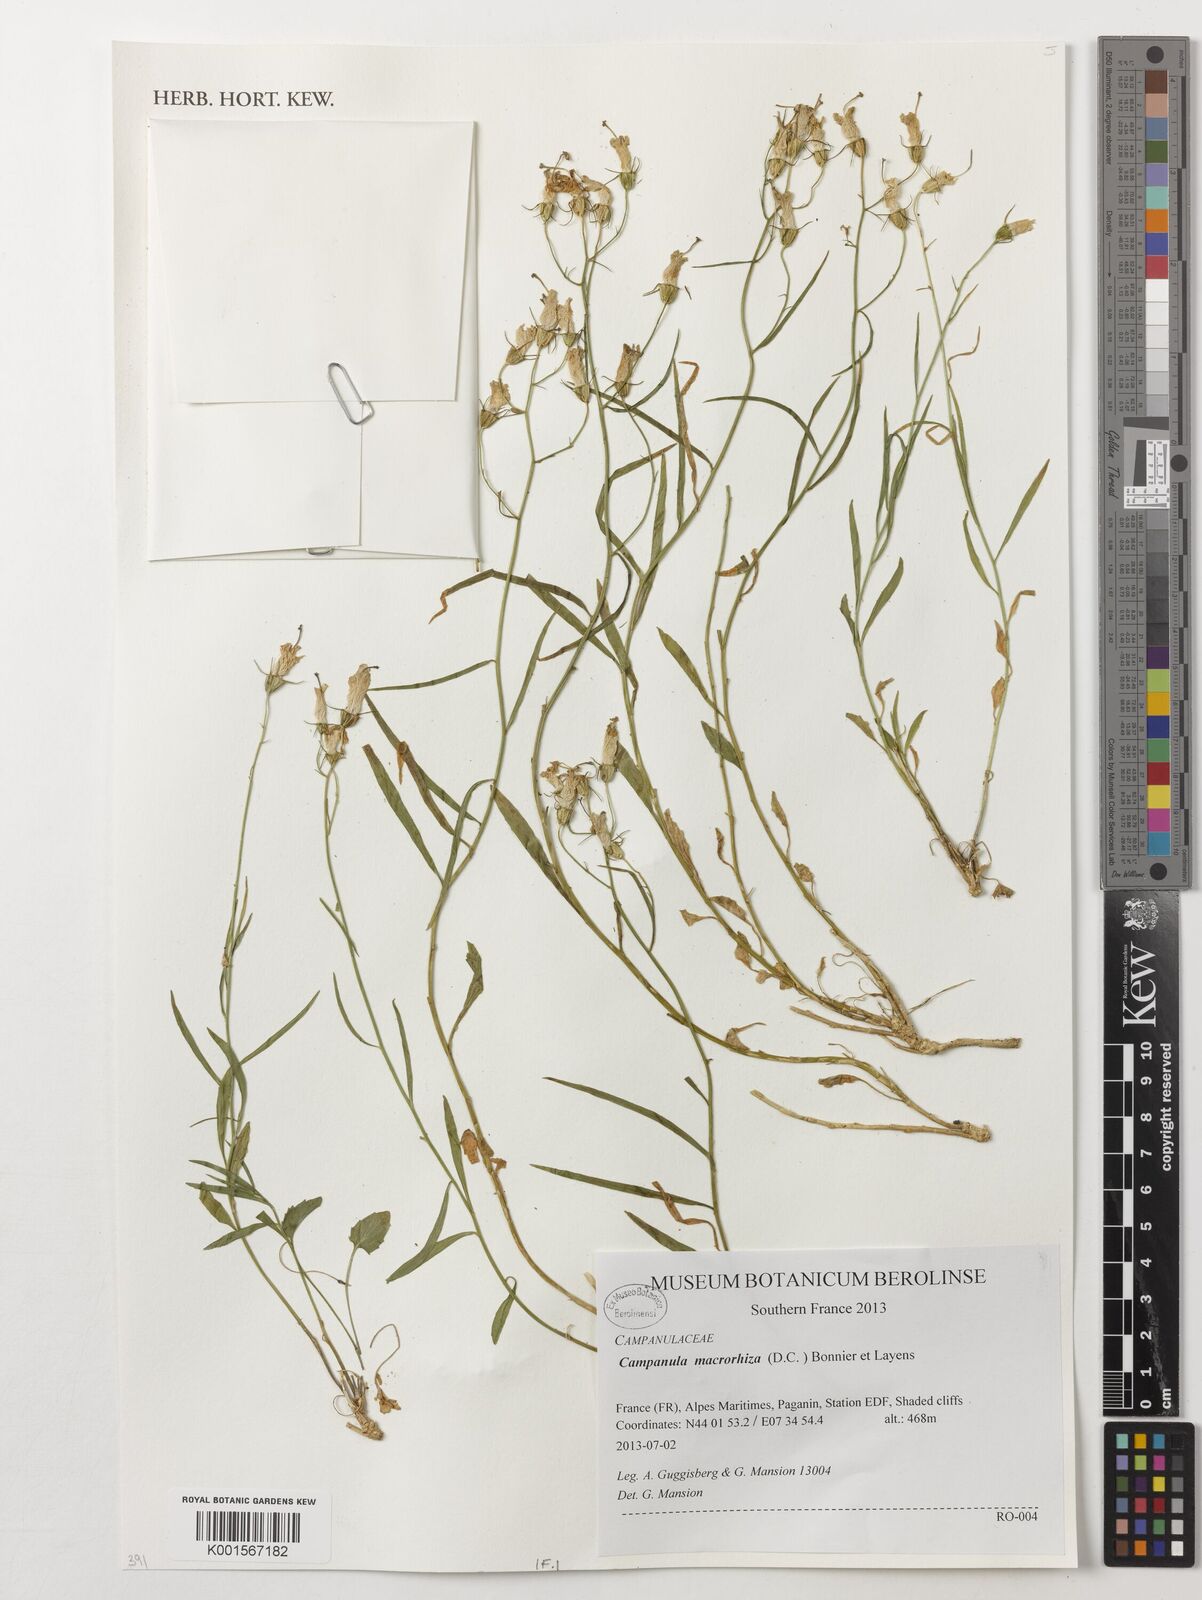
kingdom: Plantae
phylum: Tracheophyta
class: Magnoliopsida
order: Asterales
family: Campanulaceae
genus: Campanula
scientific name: Campanula macrorhiza
